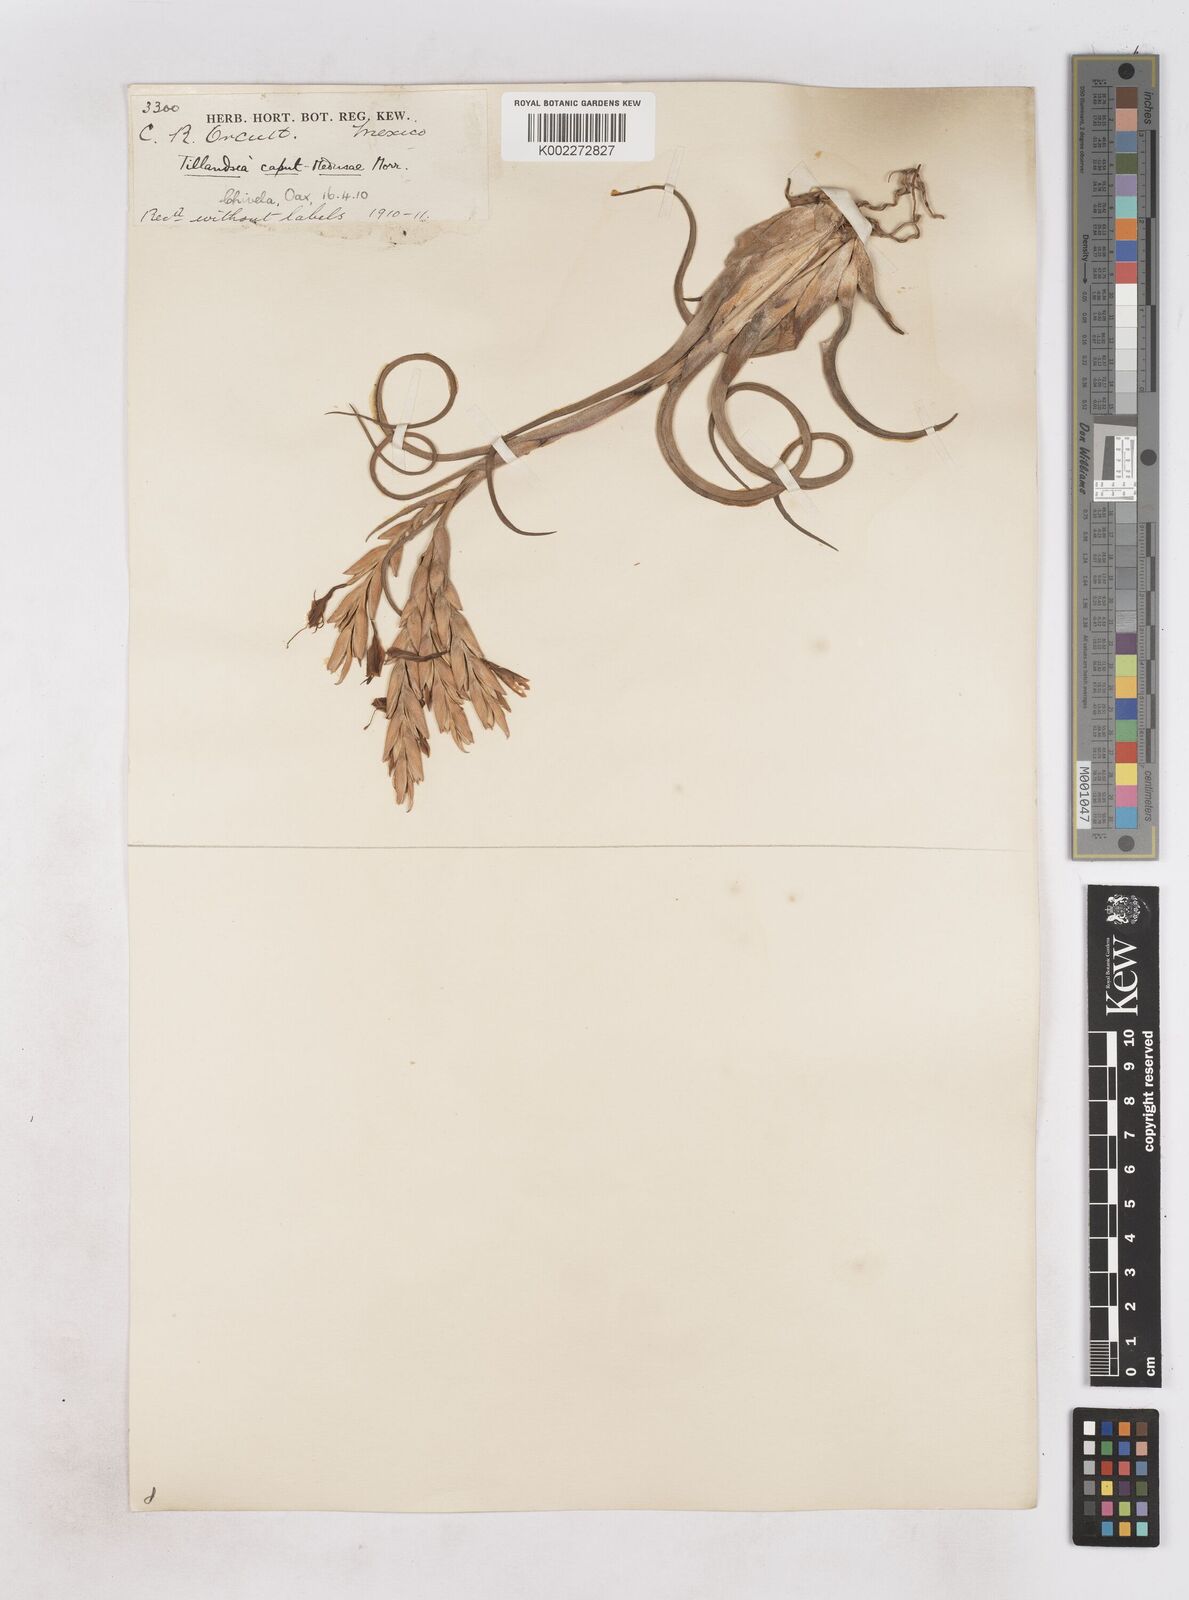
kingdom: Plantae
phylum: Tracheophyta
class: Liliopsida
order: Poales
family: Bromeliaceae
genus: Tillandsia
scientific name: Tillandsia caput-medusae
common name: Octopus plant
